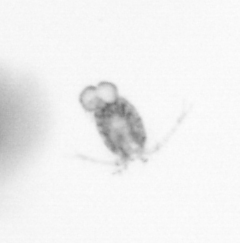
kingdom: Animalia
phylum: Arthropoda
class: Copepoda
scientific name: Copepoda
